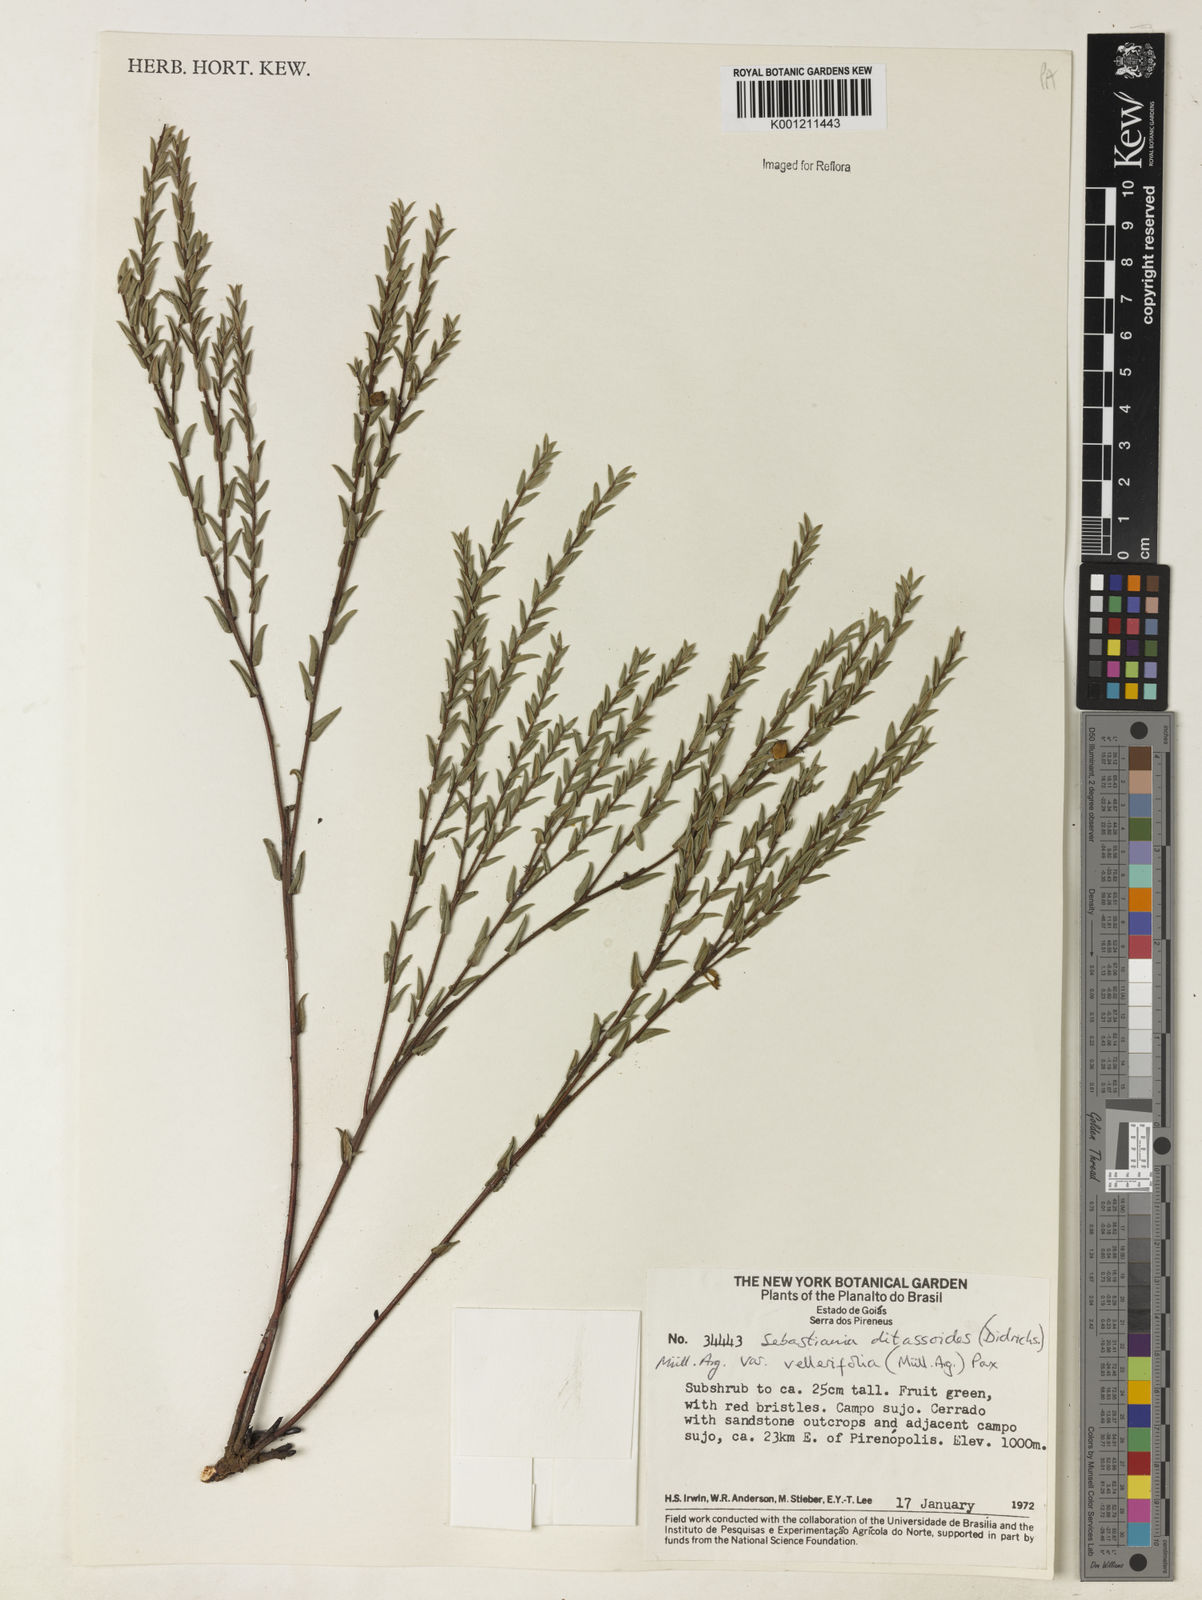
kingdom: Plantae
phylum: Tracheophyta
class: Magnoliopsida
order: Malpighiales
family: Euphorbiaceae
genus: Microstachys
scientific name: Microstachys ditassoides
